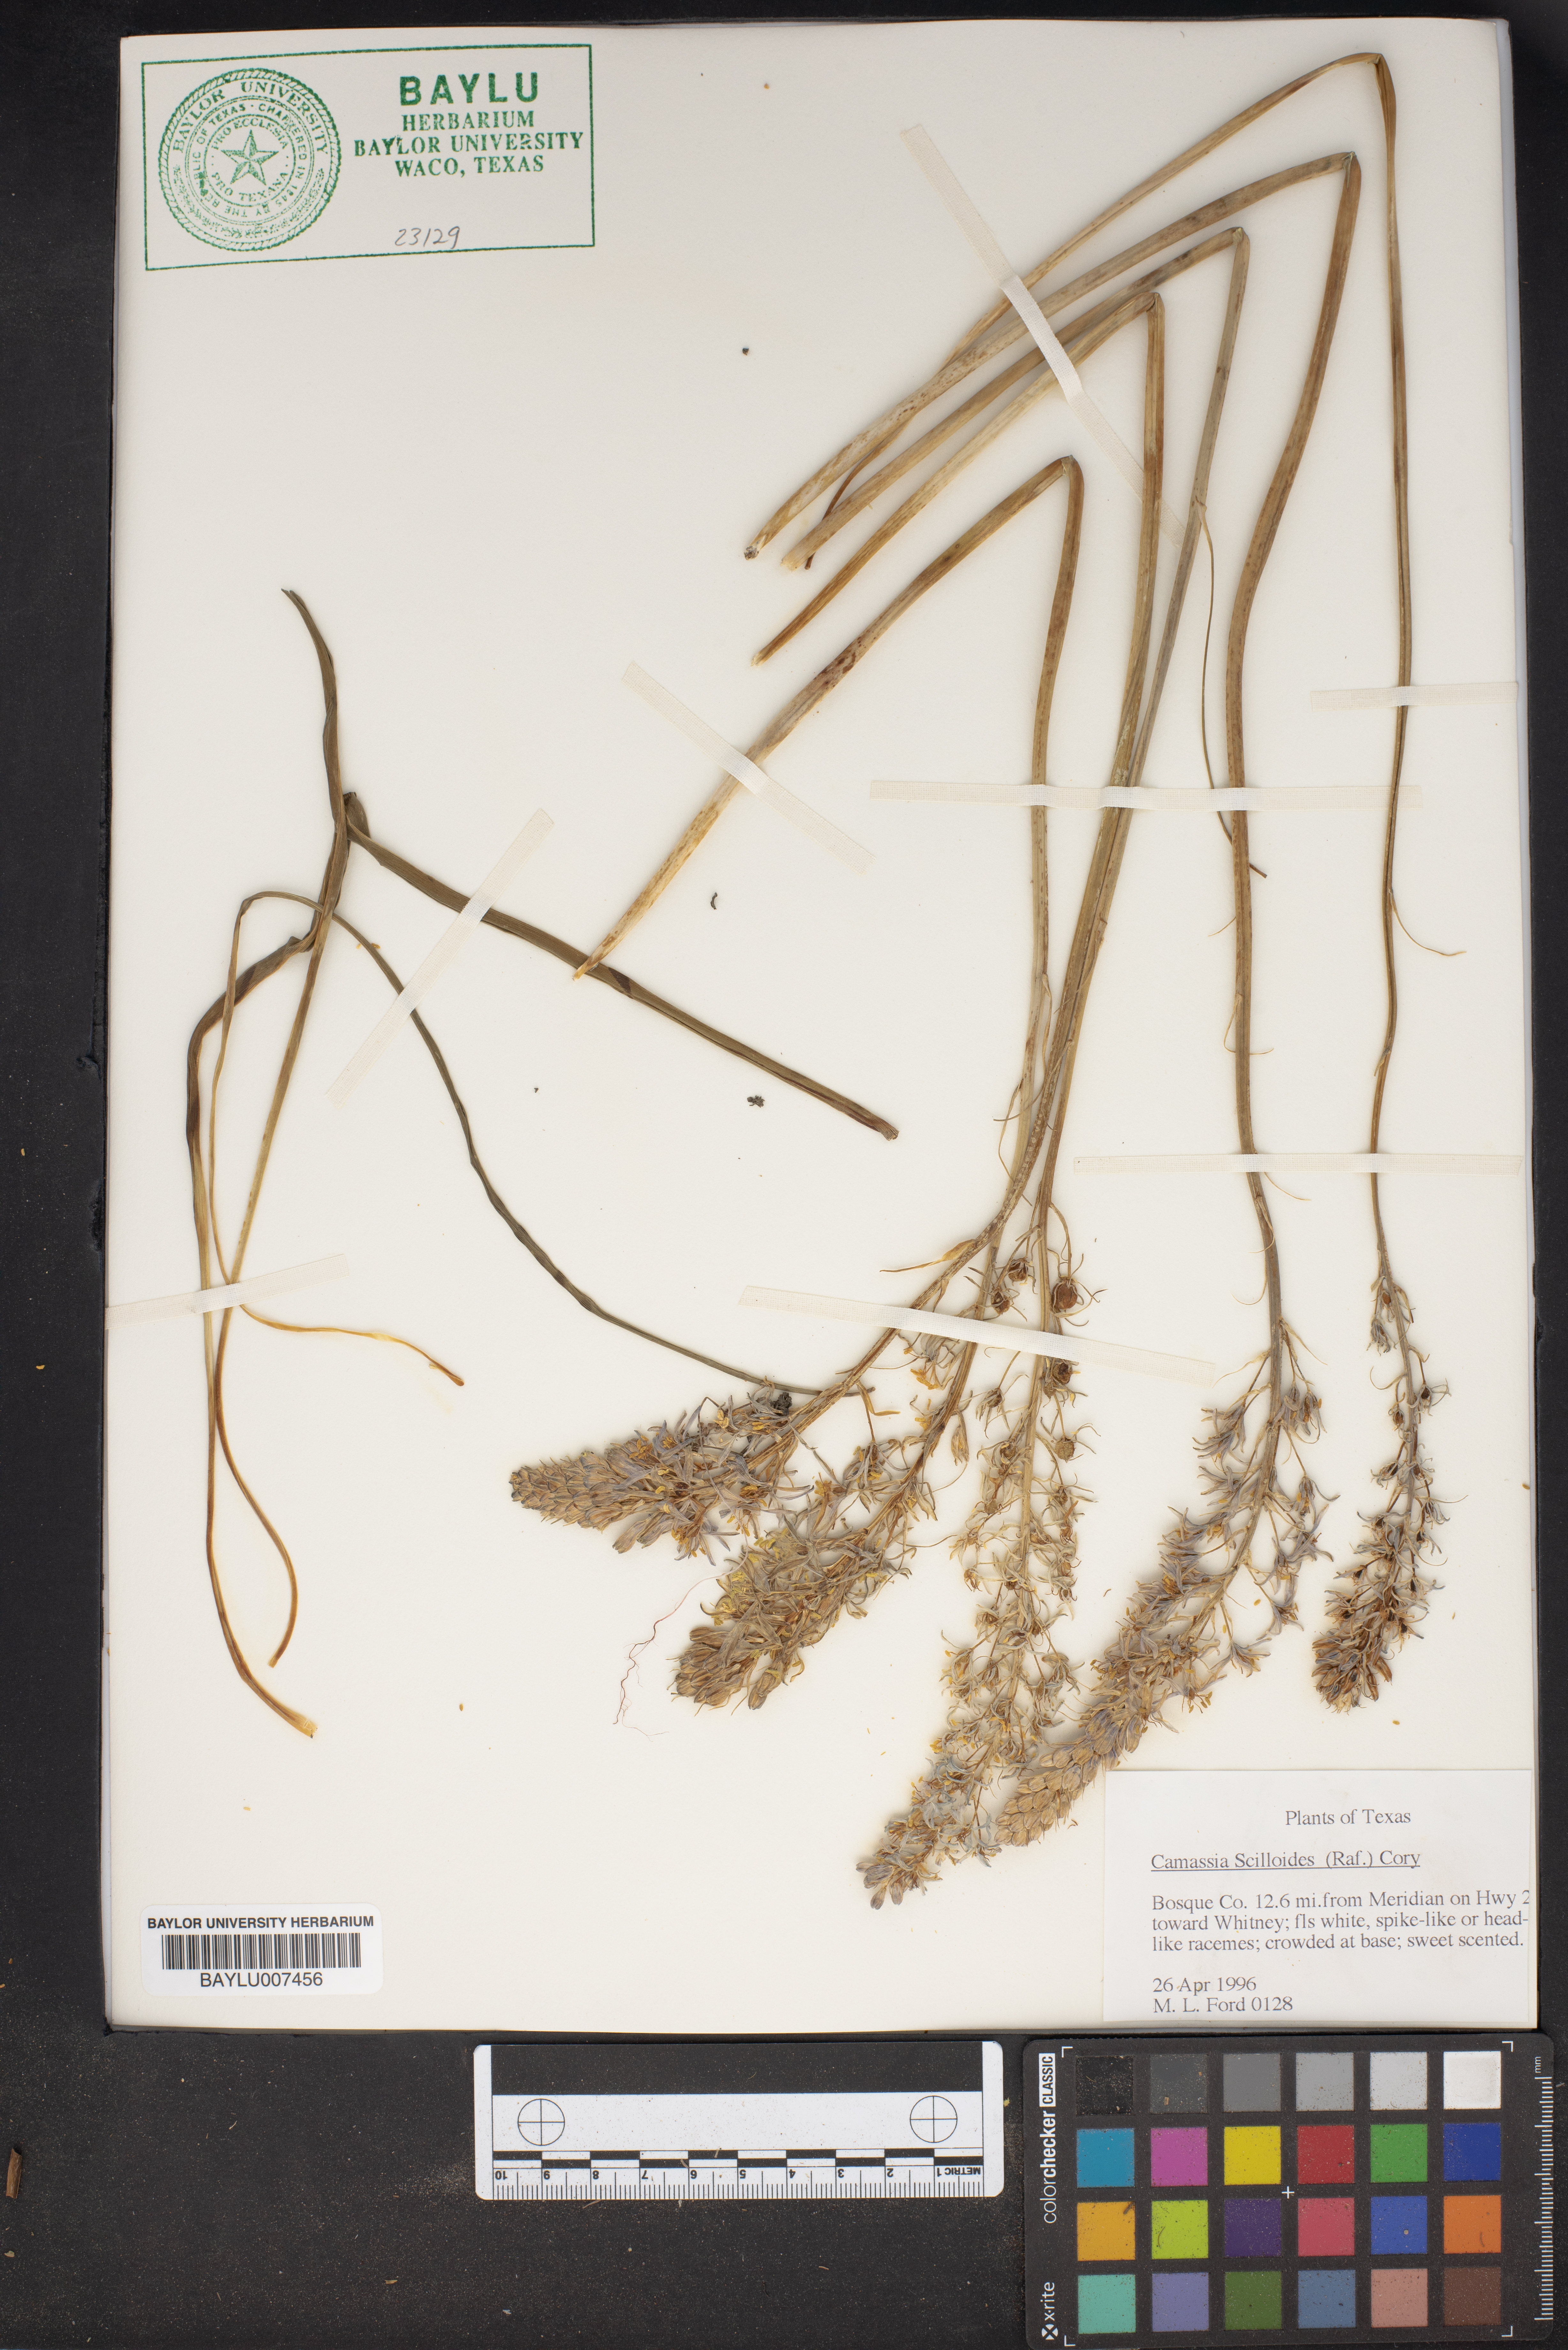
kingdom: Plantae
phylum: Tracheophyta
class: Liliopsida
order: Asparagales
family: Asparagaceae
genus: Camassia
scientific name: Camassia scilloides
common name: Wild hyacinth
